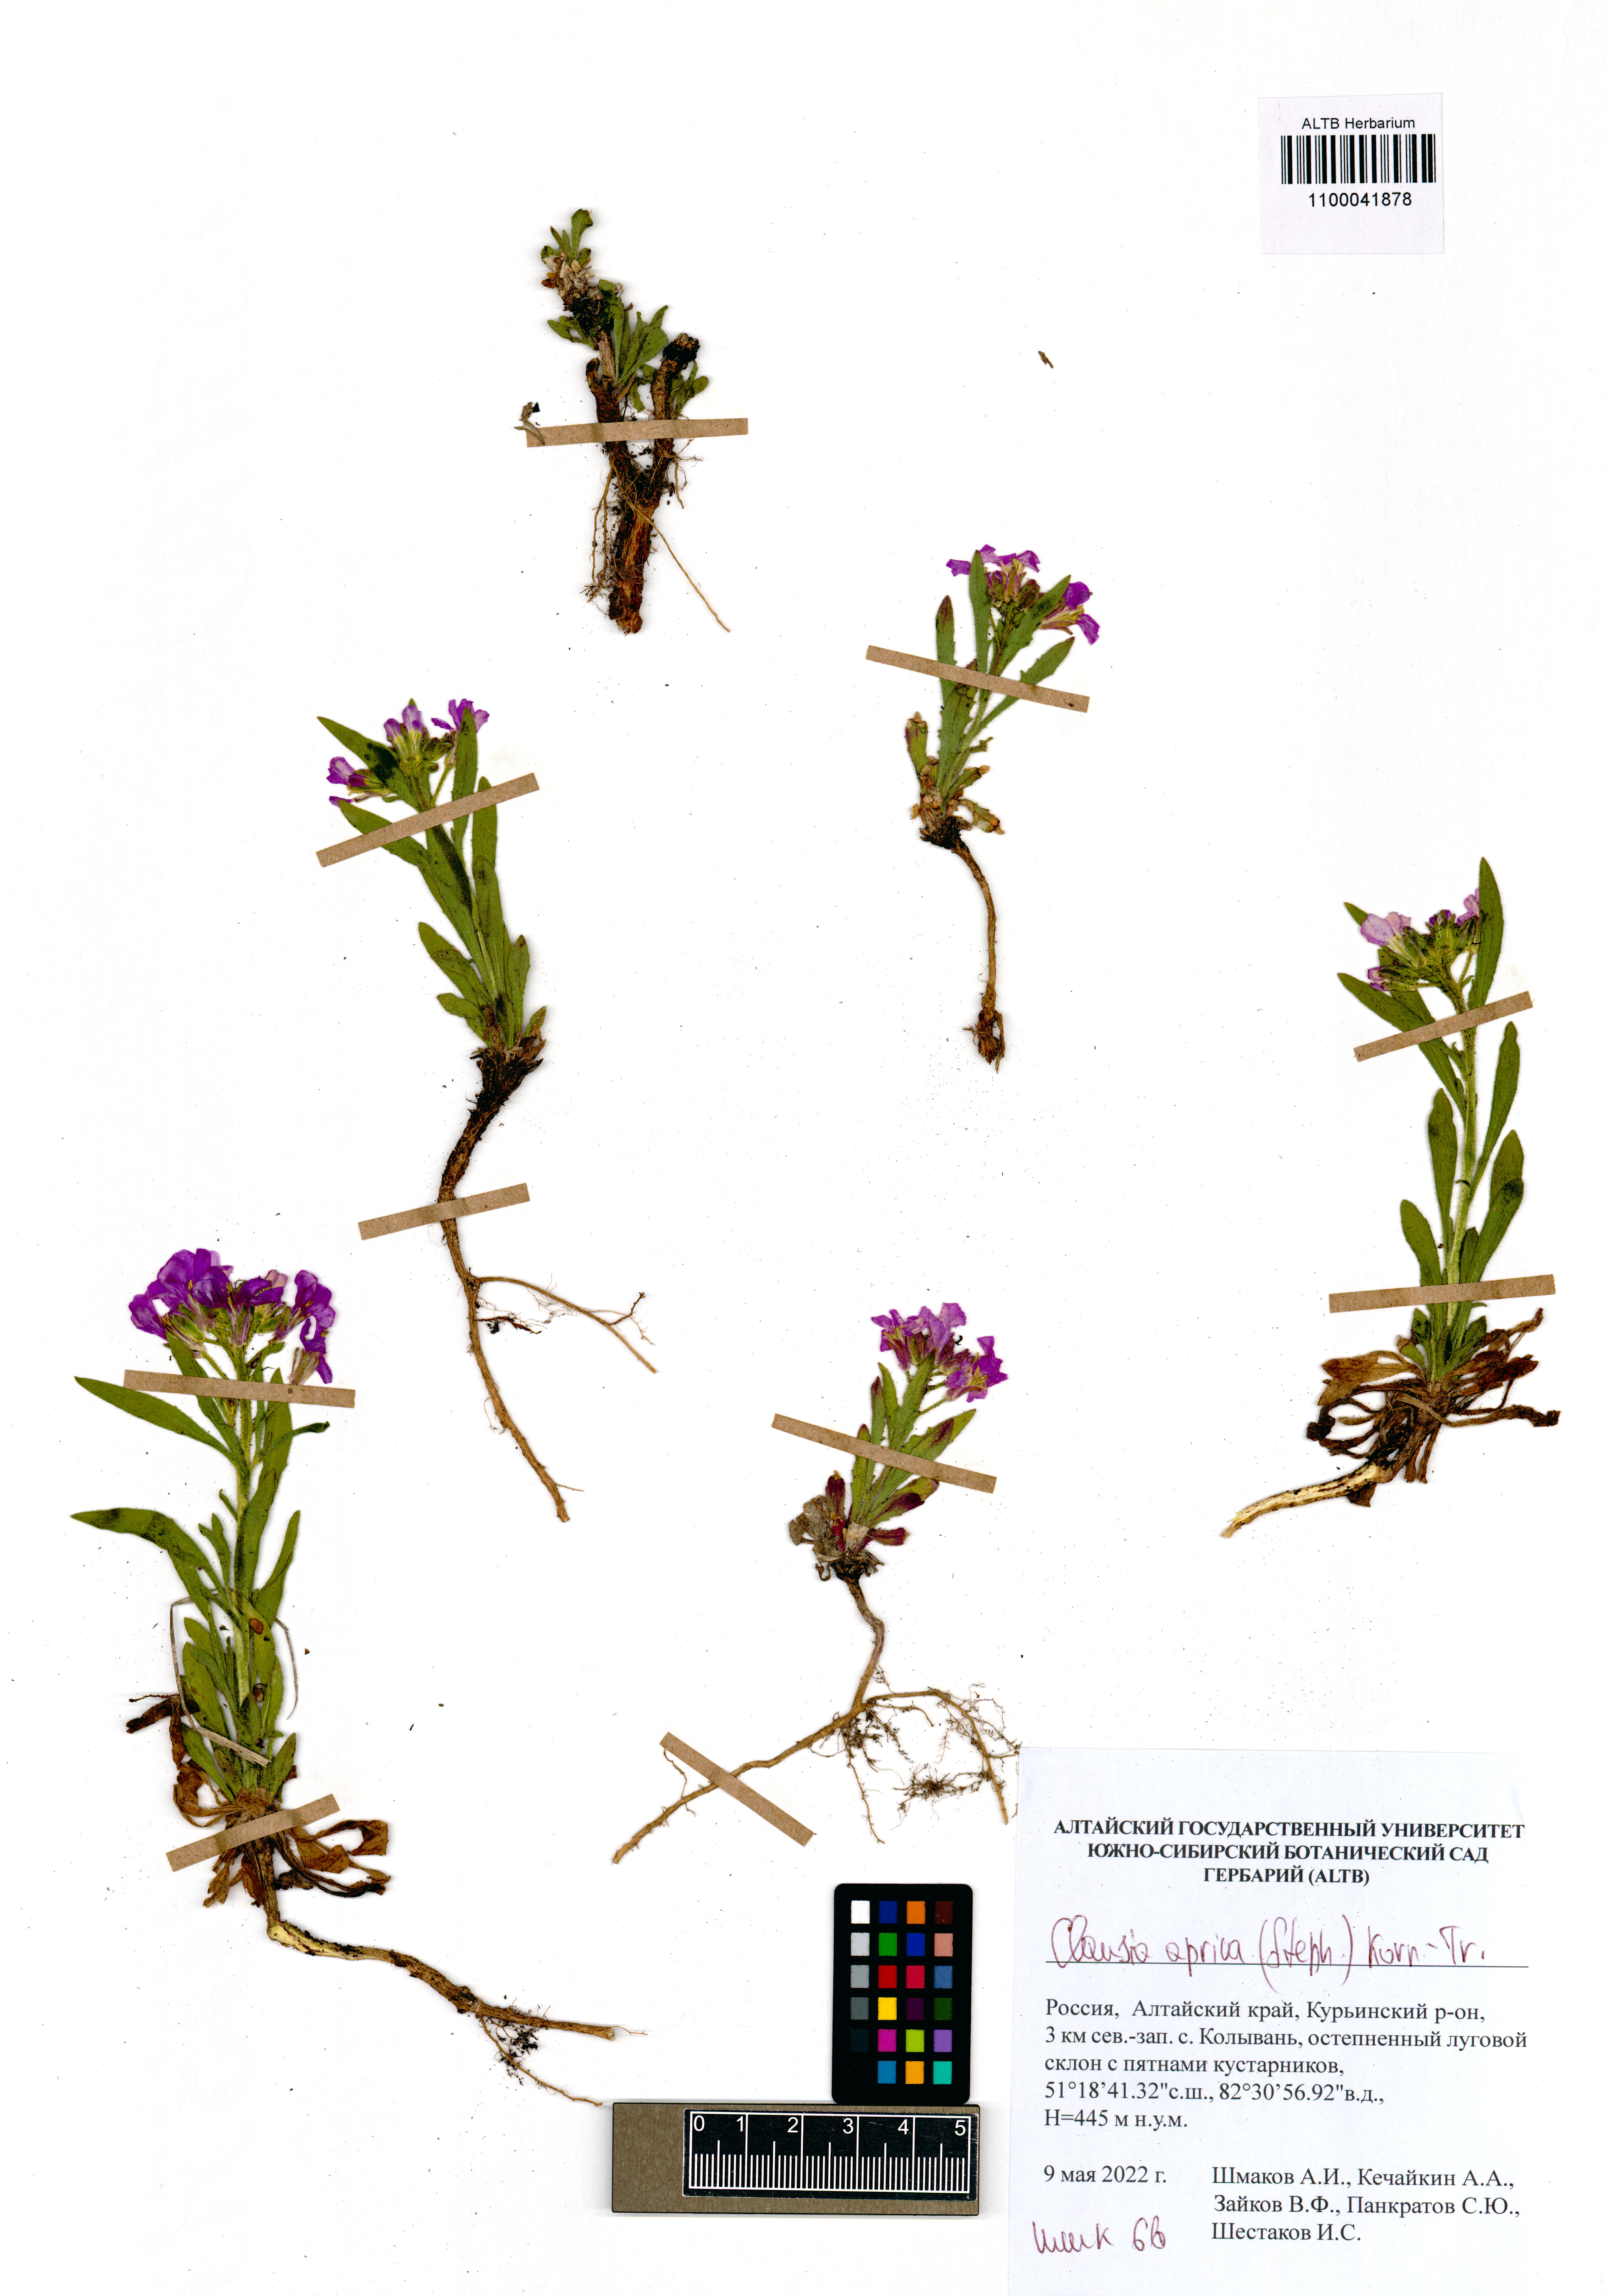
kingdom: Plantae
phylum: Tracheophyta
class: Magnoliopsida
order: Brassicales
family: Brassicaceae
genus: Clausia
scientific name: Clausia aprica
